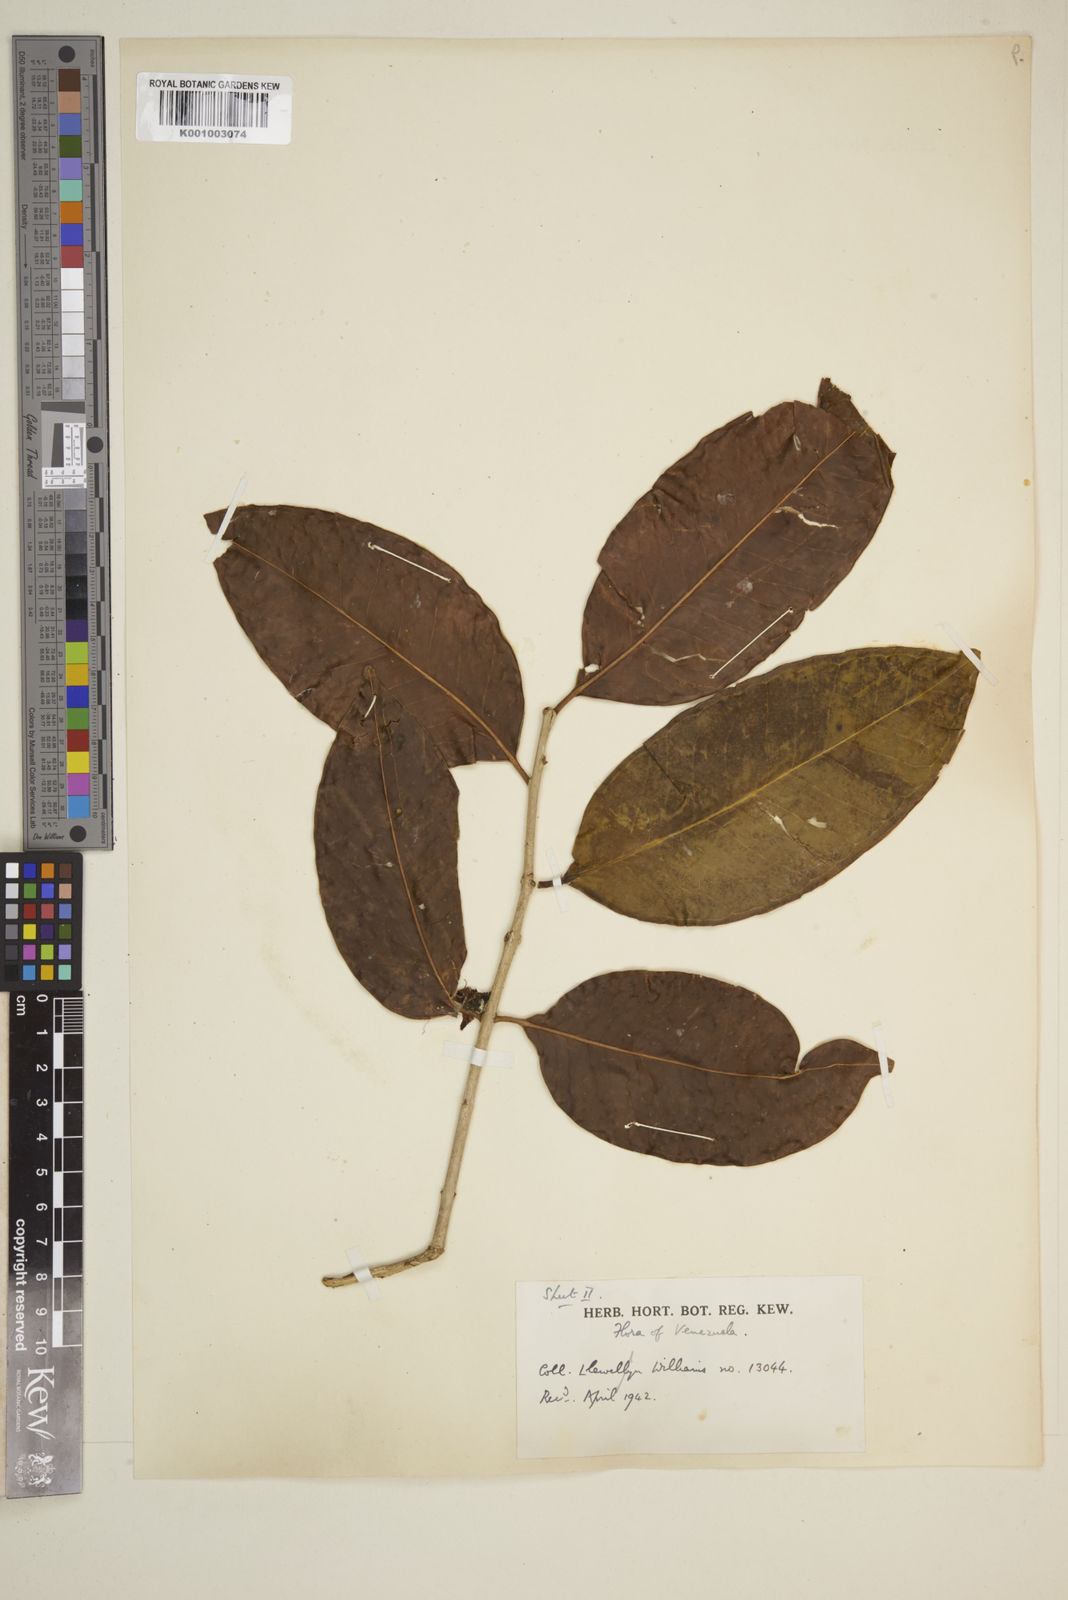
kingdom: Plantae
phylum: Tracheophyta
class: Magnoliopsida
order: Myrtales
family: Myrtaceae
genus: Eugenia
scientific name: Eugenia
